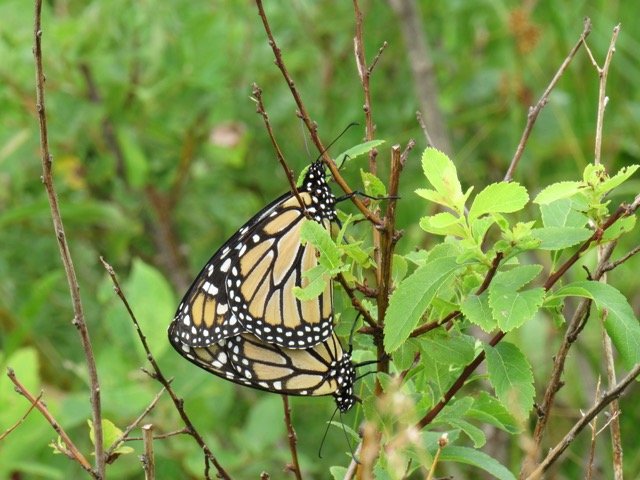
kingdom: Animalia
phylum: Arthropoda
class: Insecta
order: Lepidoptera
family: Nymphalidae
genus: Danaus
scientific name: Danaus plexippus
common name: Monarch
